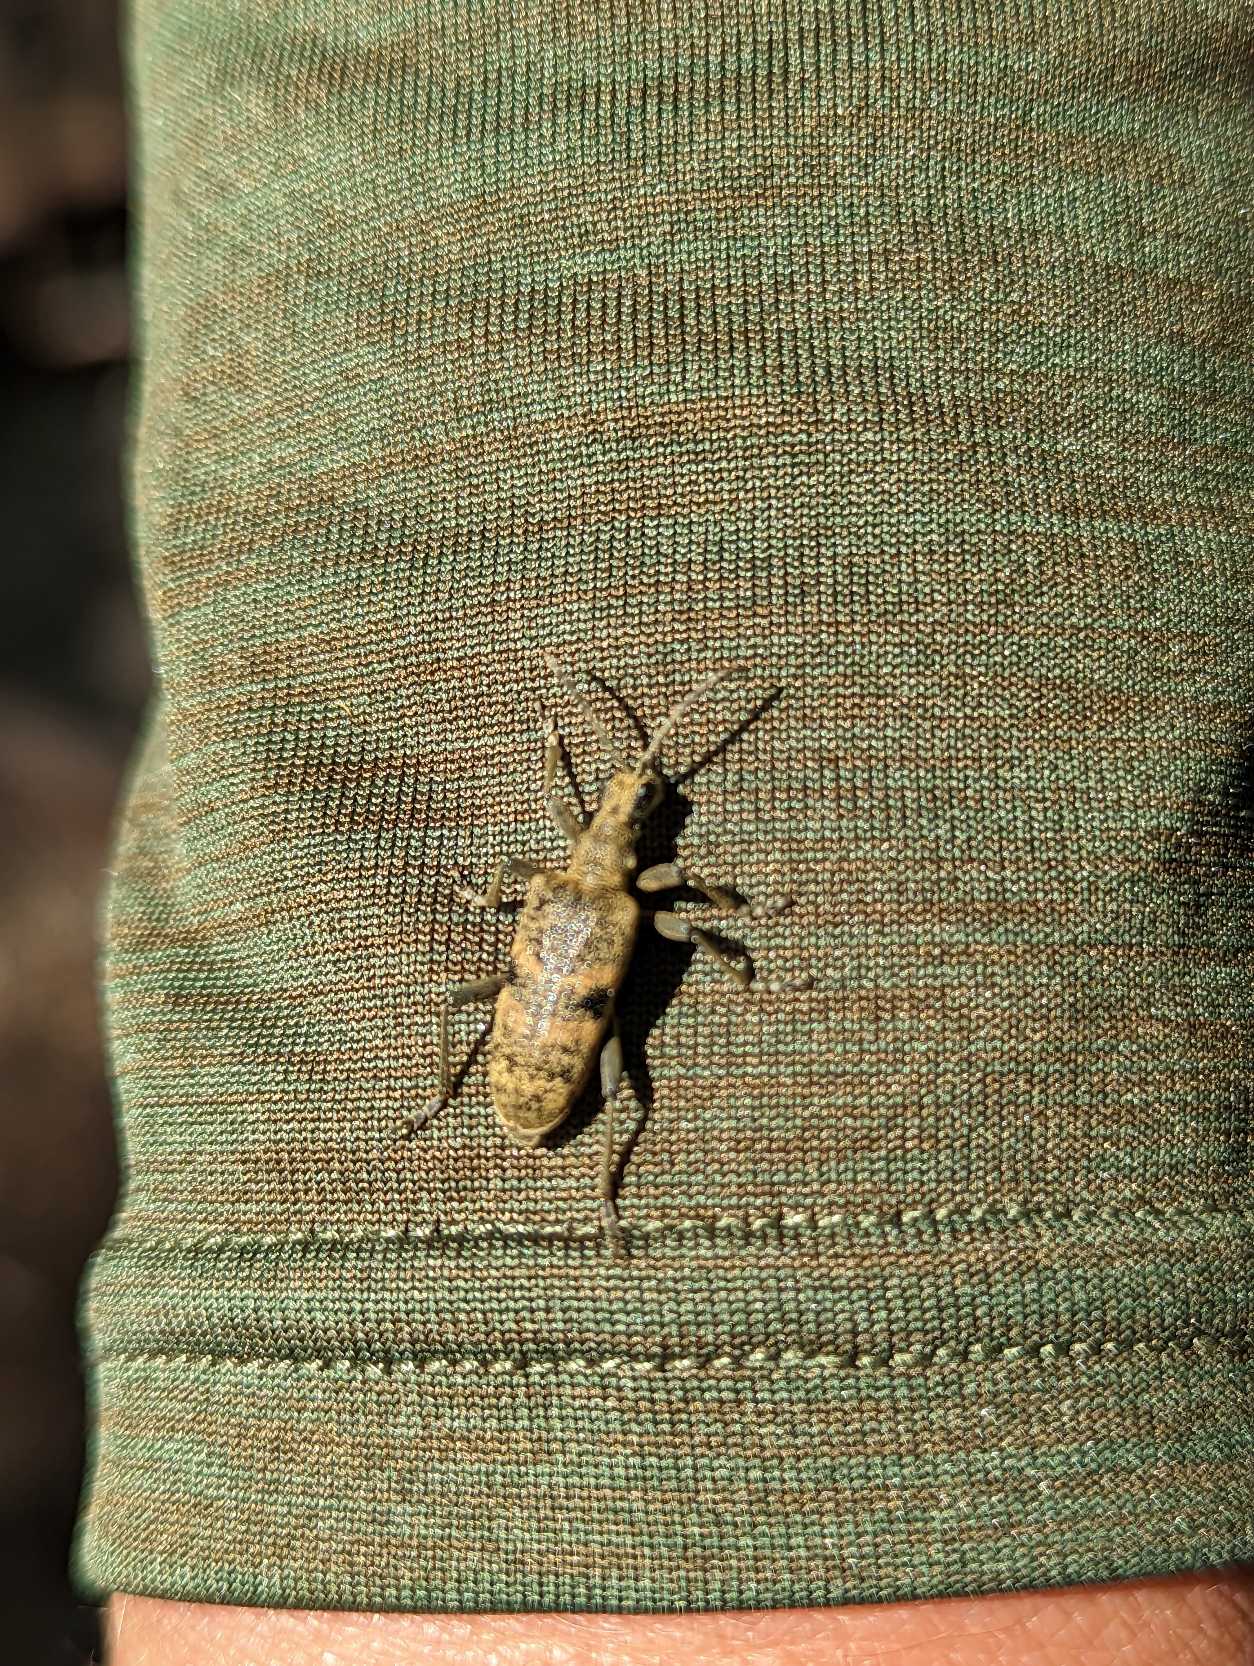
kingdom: Animalia
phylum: Arthropoda
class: Insecta
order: Coleoptera
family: Cerambycidae
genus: Rhagium
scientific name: Rhagium mordax
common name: Blankplettet tandbuk
